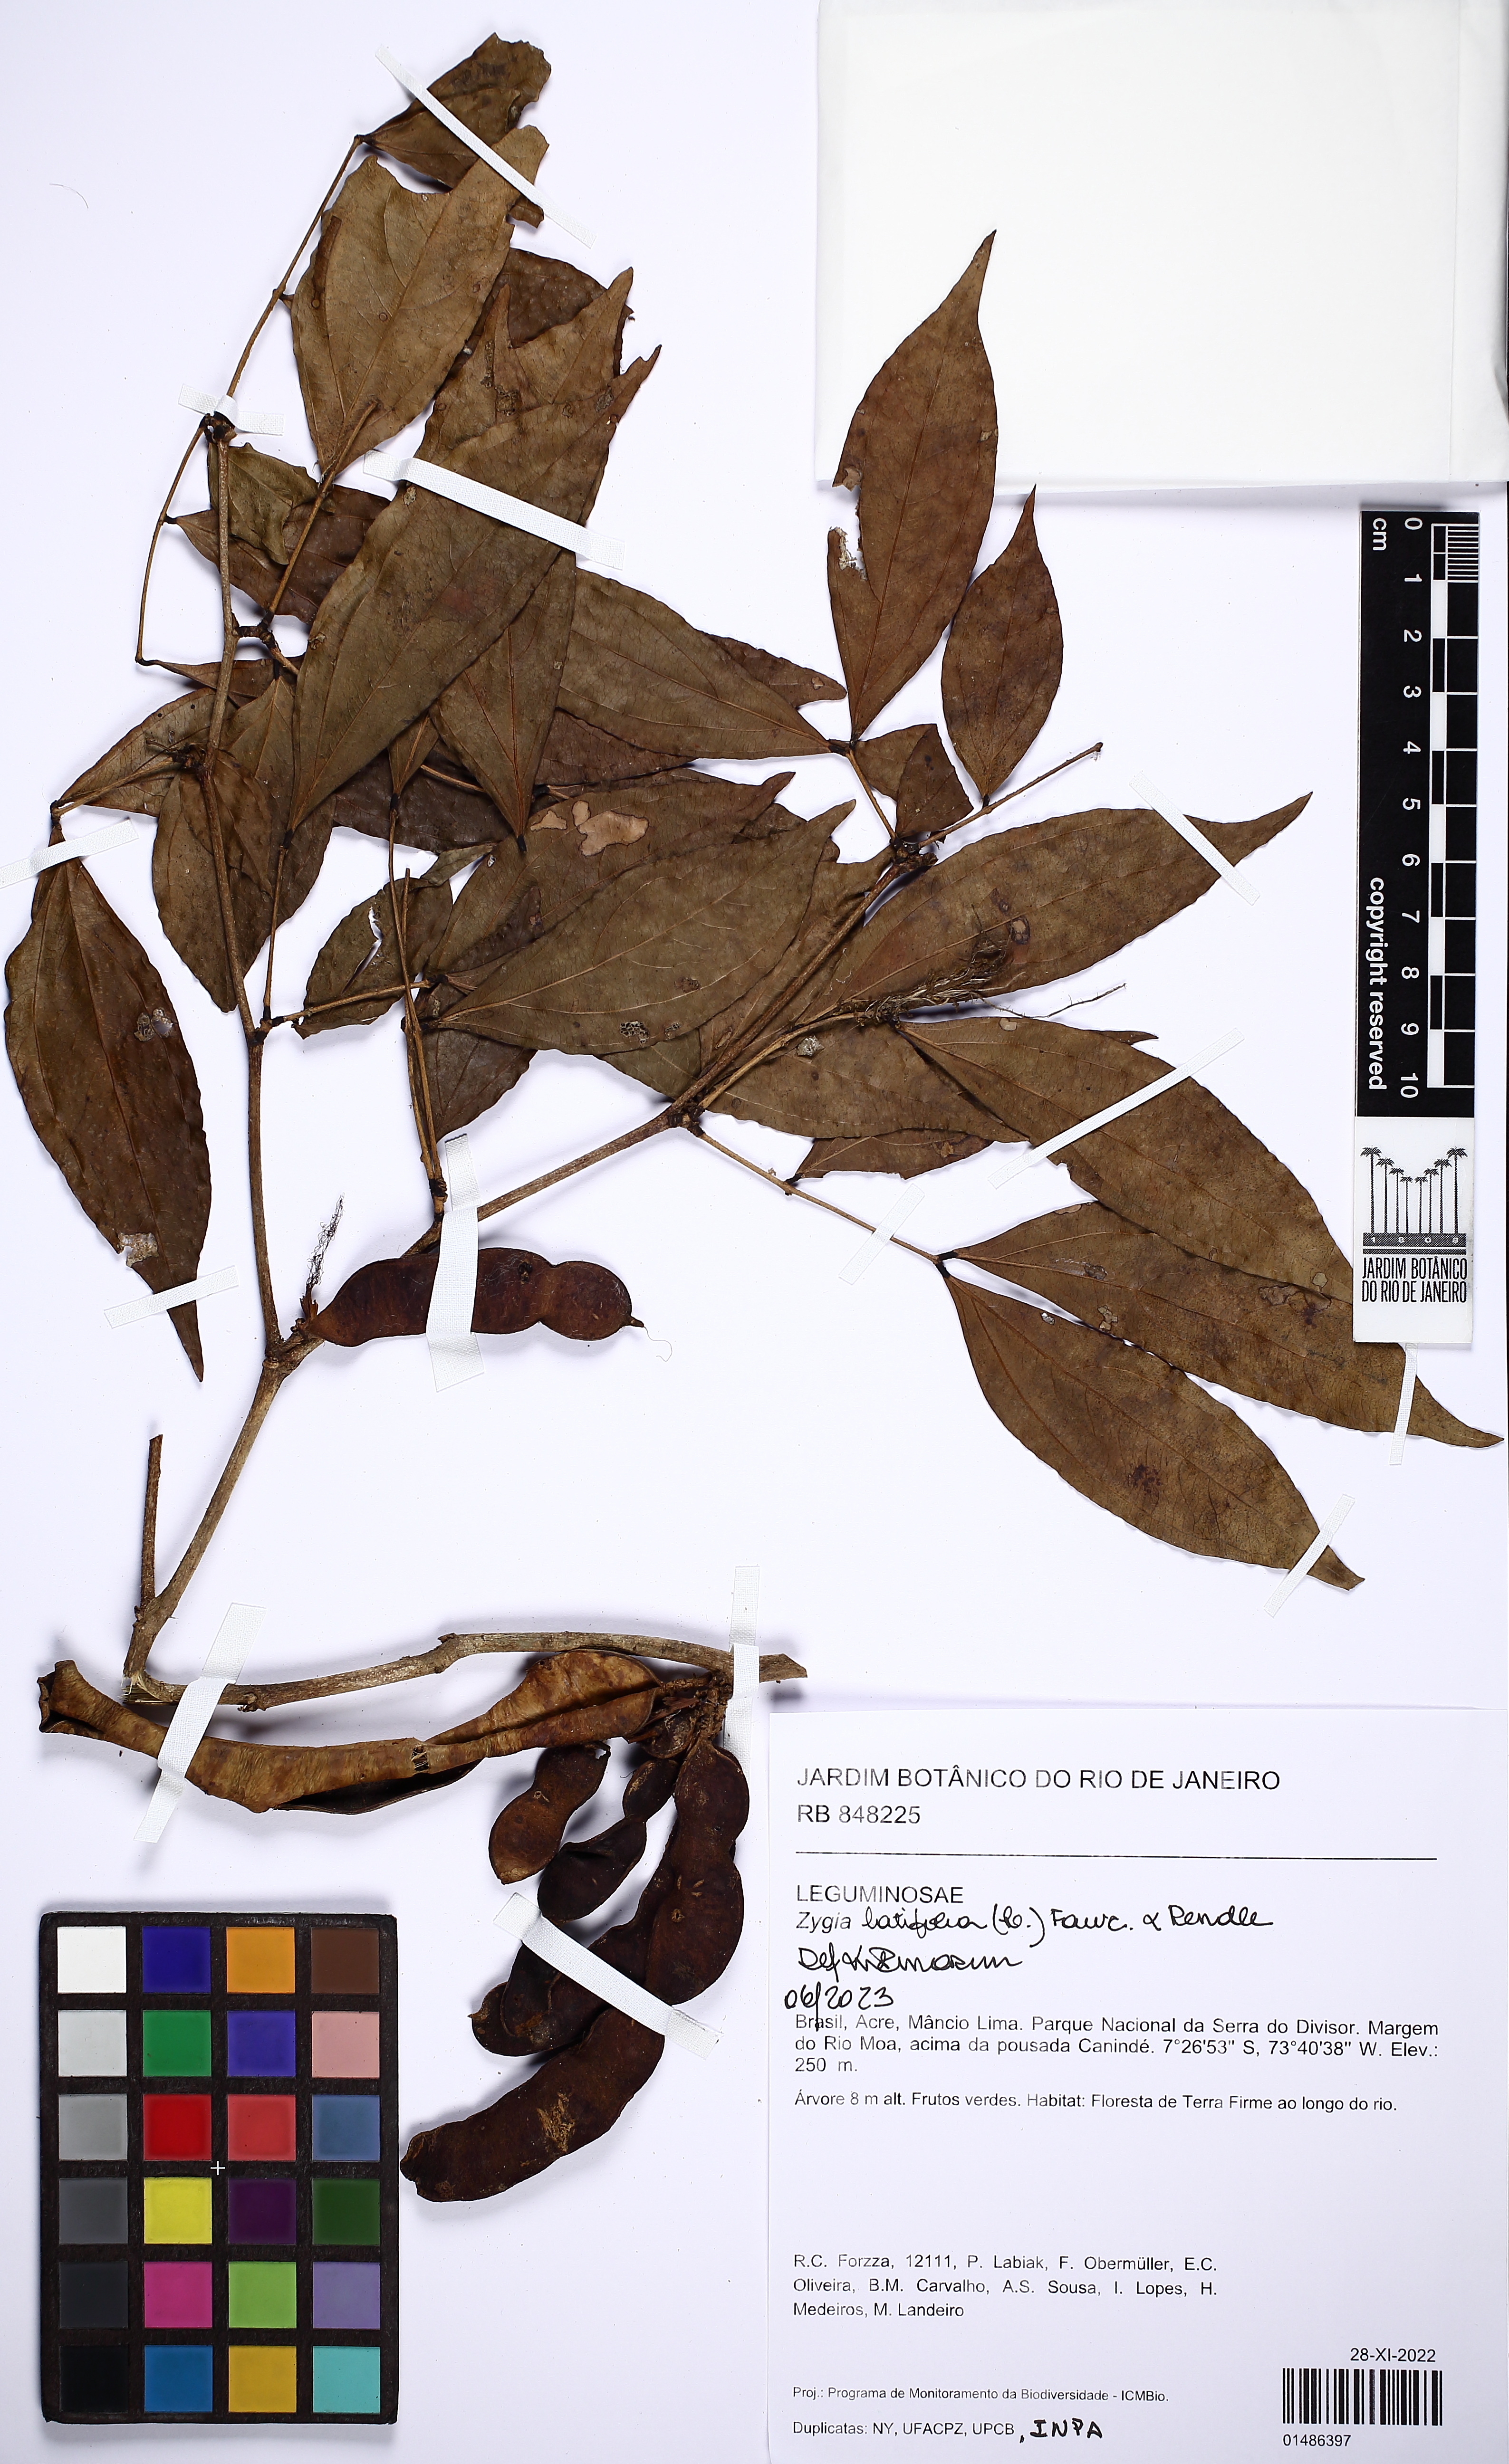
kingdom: Plantae
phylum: Tracheophyta
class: Magnoliopsida
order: Fabales
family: Fabaceae
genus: Zygia
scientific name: Zygia latifolia
